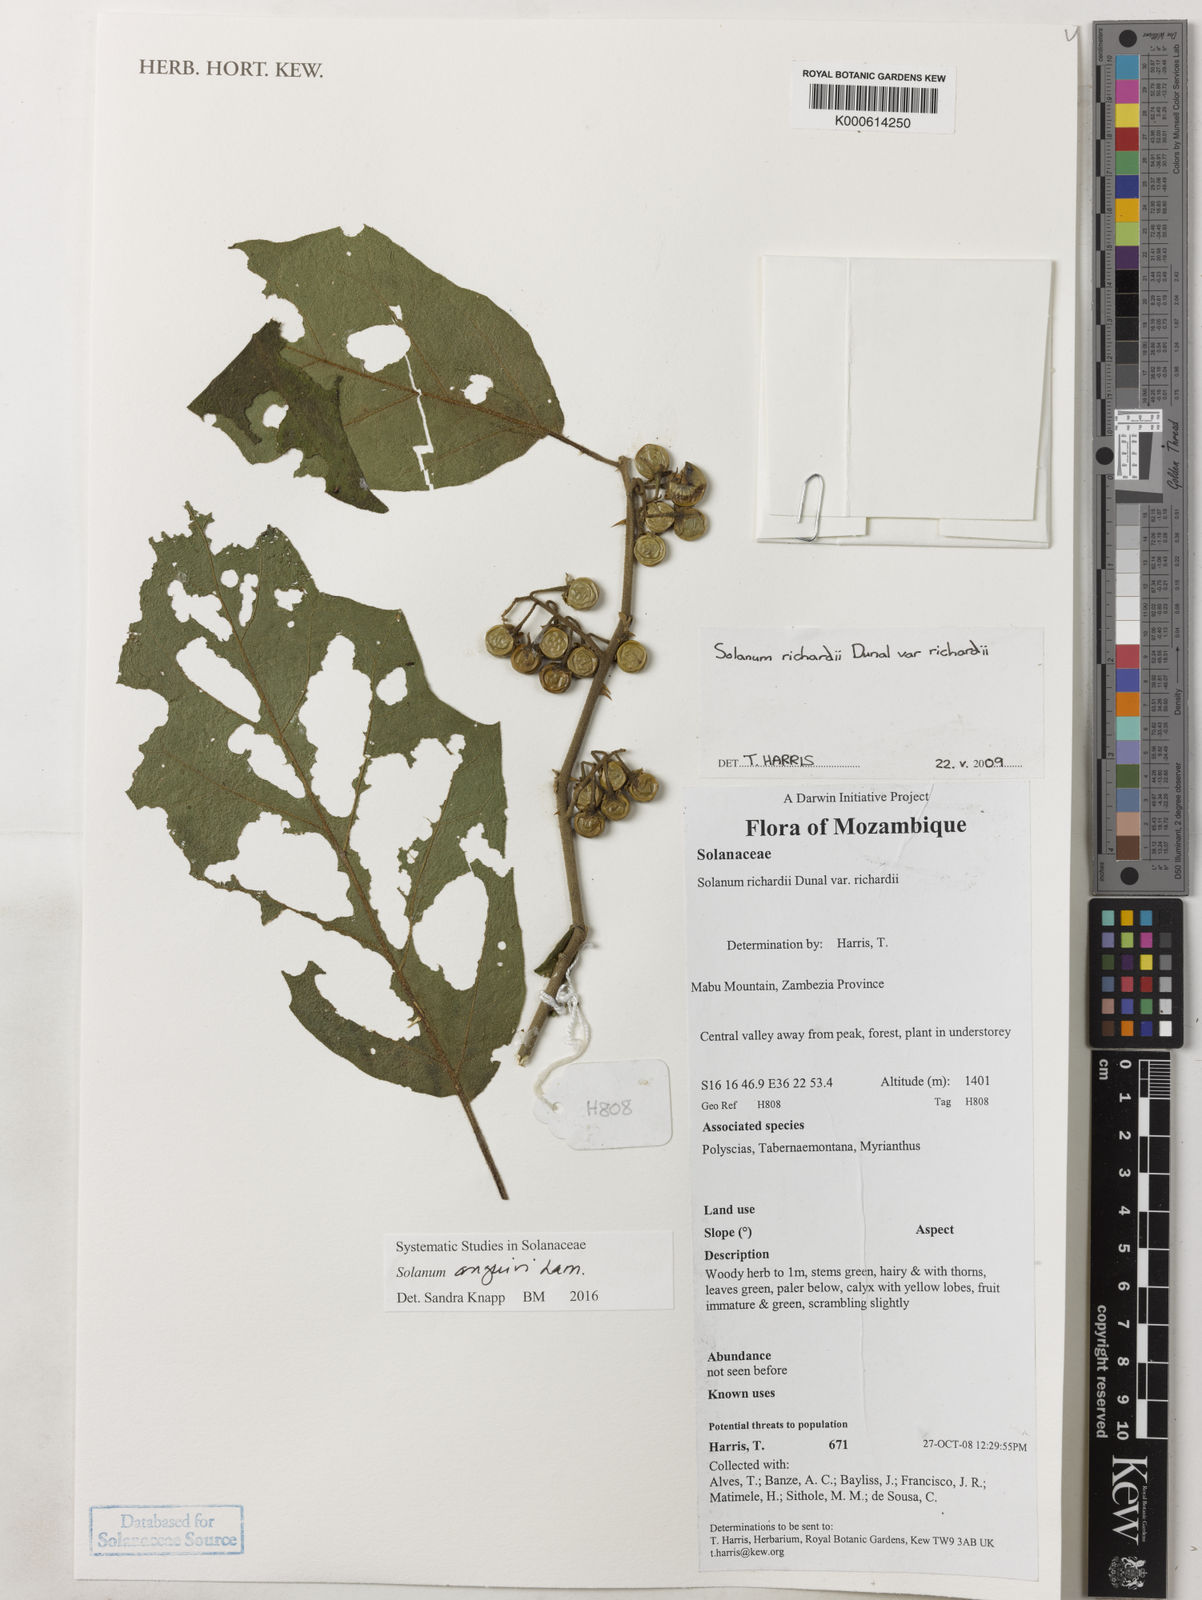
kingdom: Plantae
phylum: Tracheophyta
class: Magnoliopsida
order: Solanales
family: Solanaceae
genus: Solanum
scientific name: Solanum richardii
